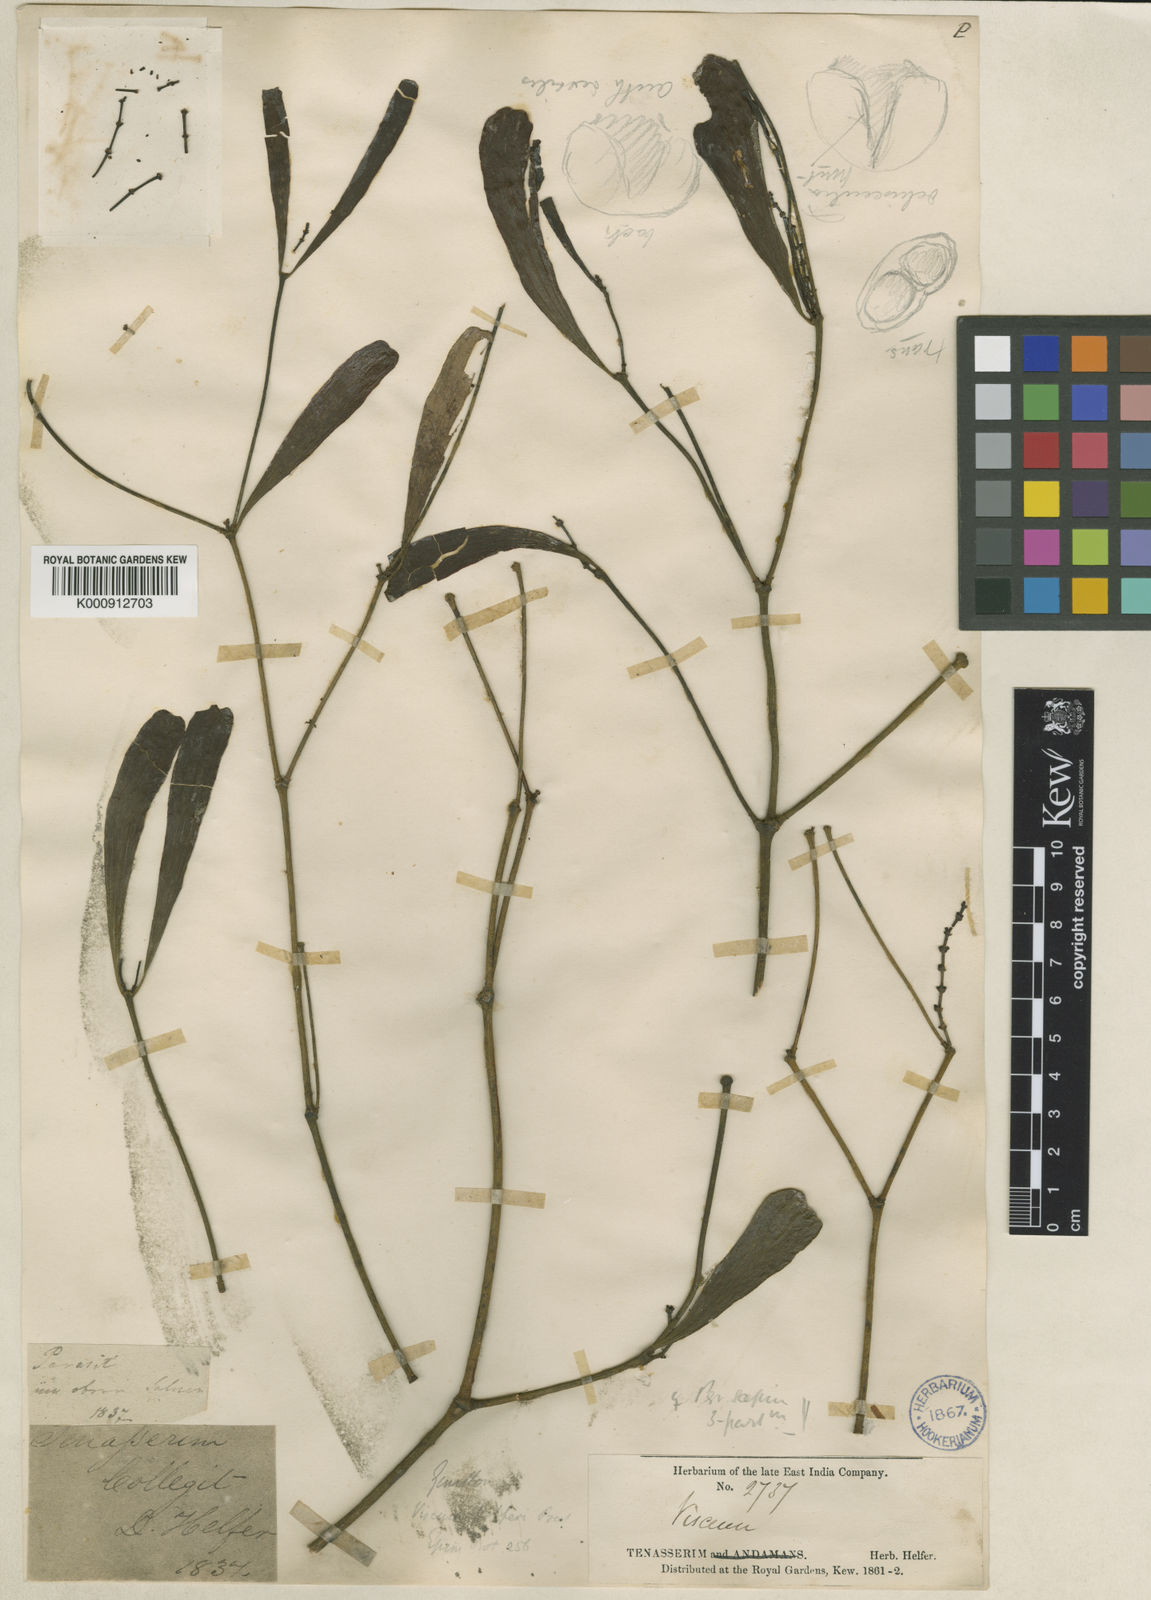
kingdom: Plantae
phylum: Tracheophyta
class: Magnoliopsida
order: Santalales
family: Viscaceae
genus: Ginalloa
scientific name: Ginalloa helferi
